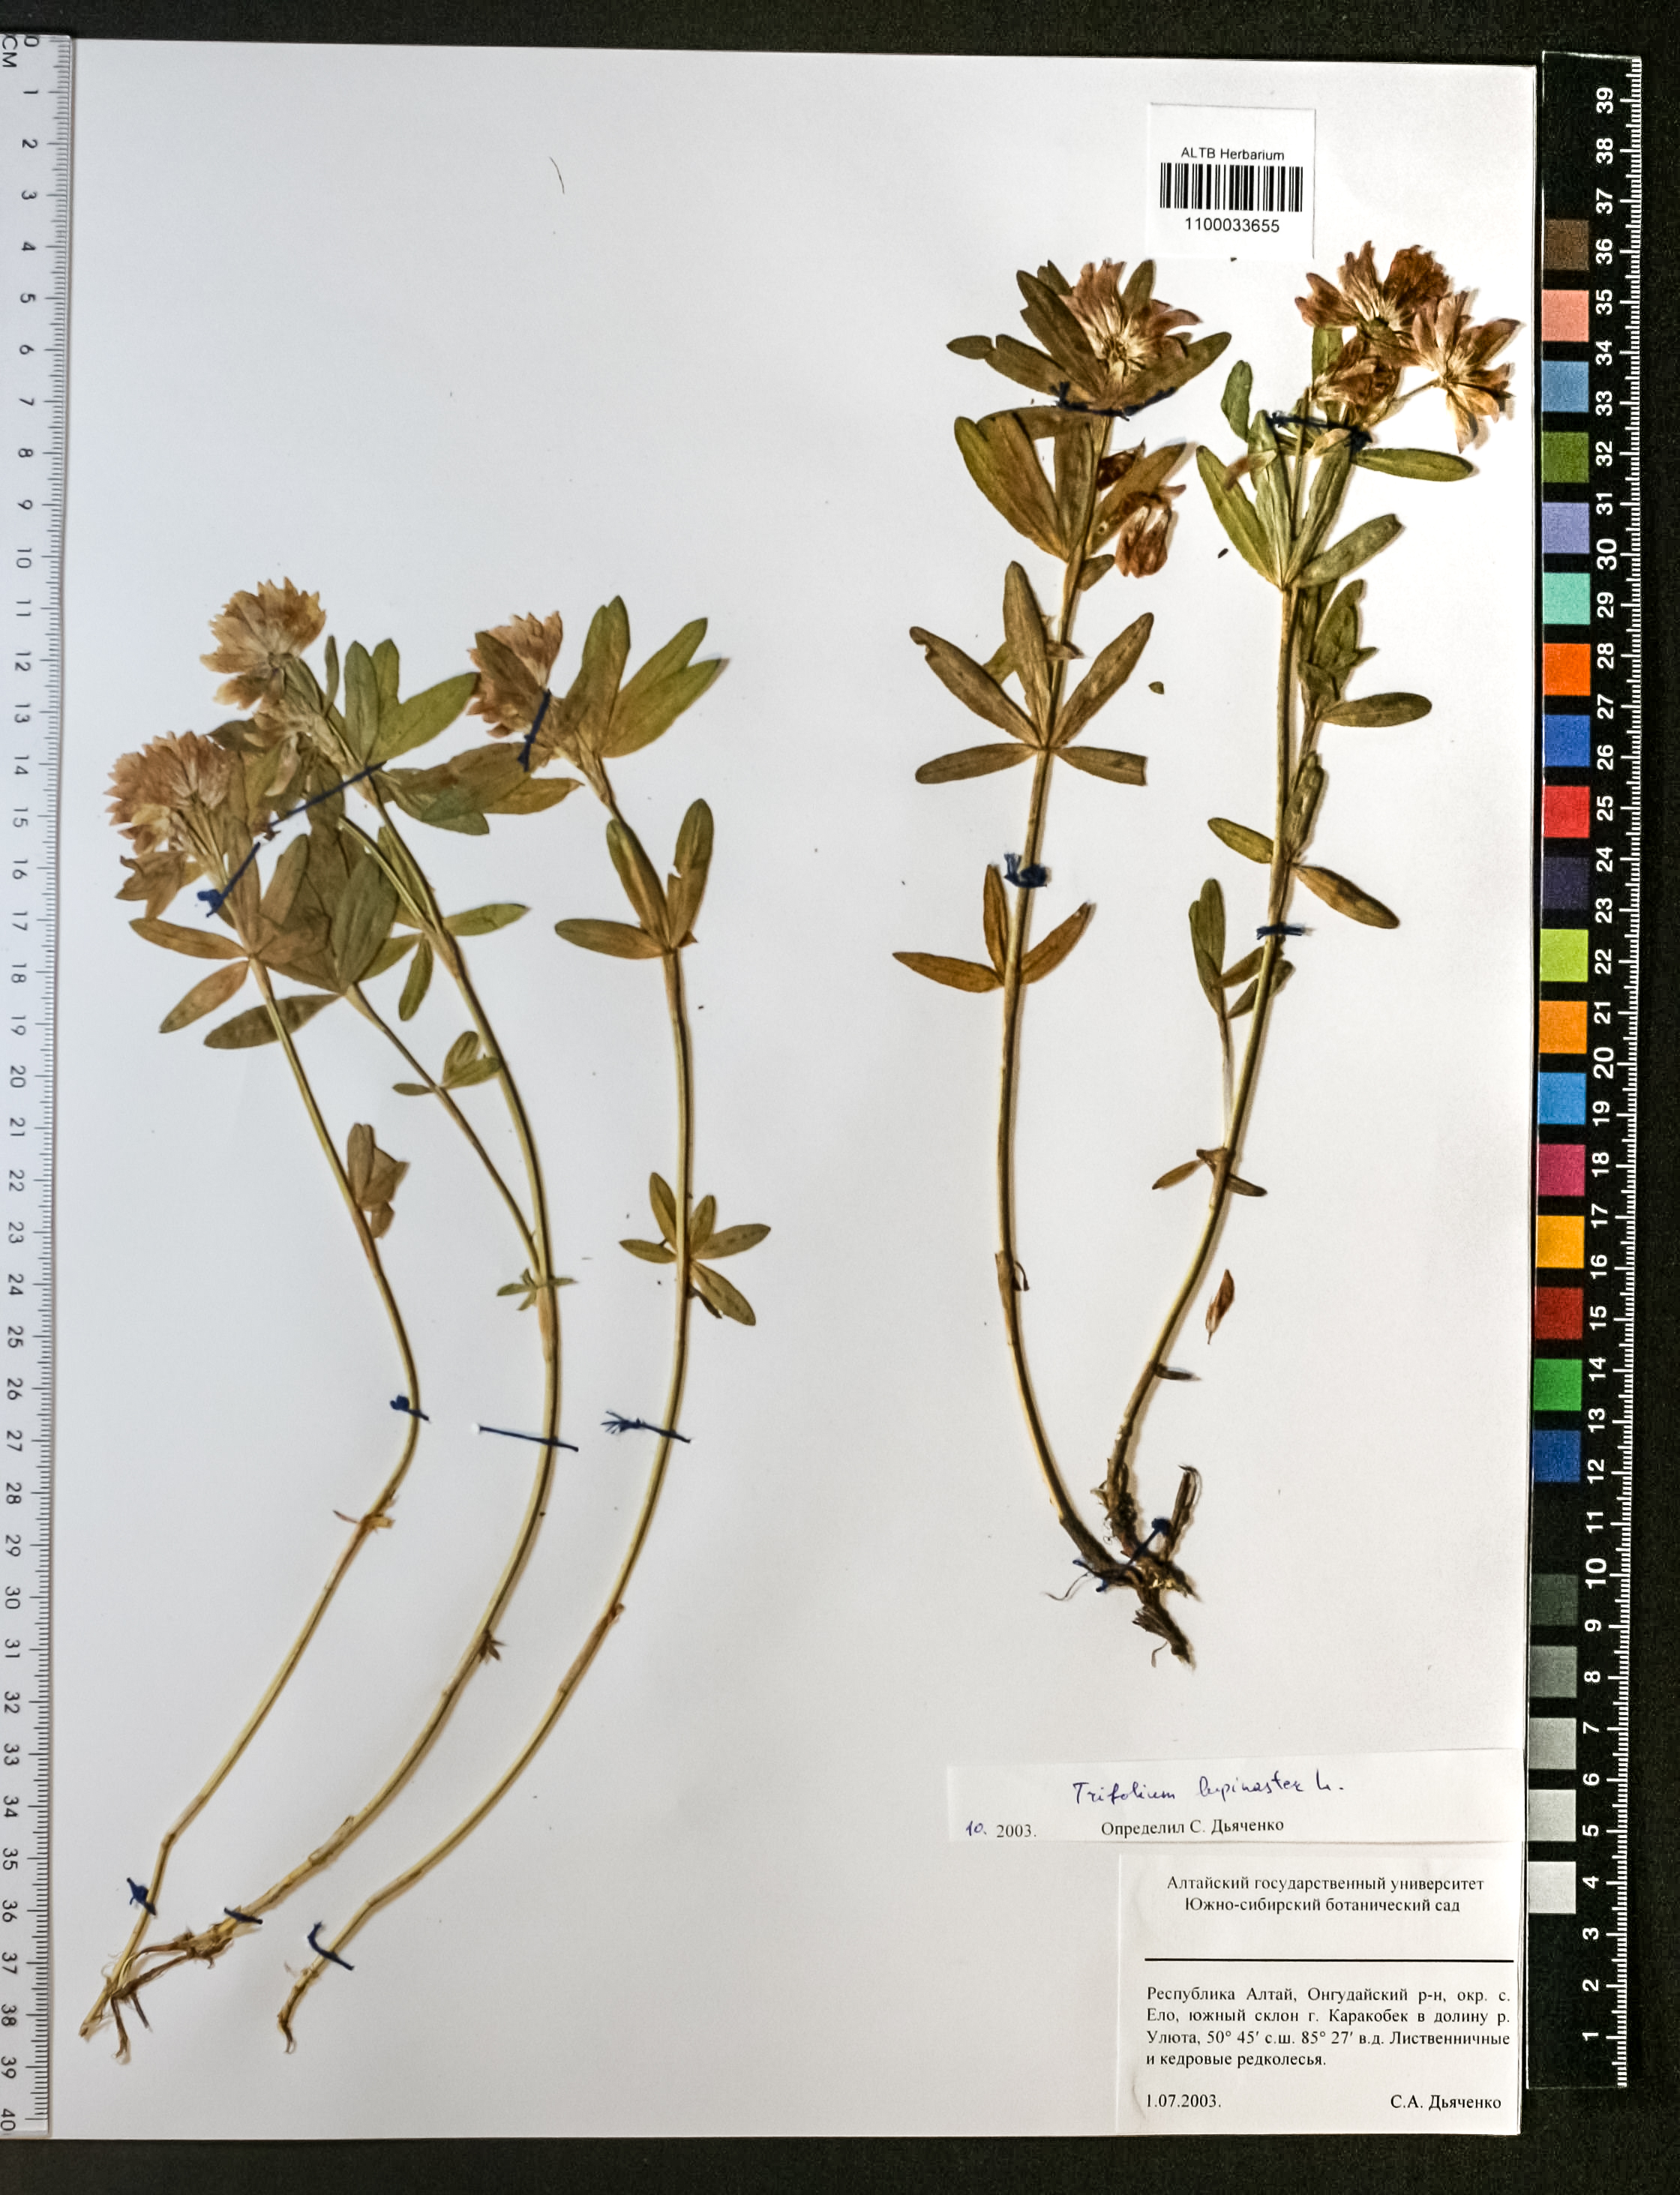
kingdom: Plantae
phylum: Tracheophyta
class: Magnoliopsida
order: Fabales
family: Fabaceae
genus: Trifolium
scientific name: Trifolium lupinaster
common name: Lupine clover
